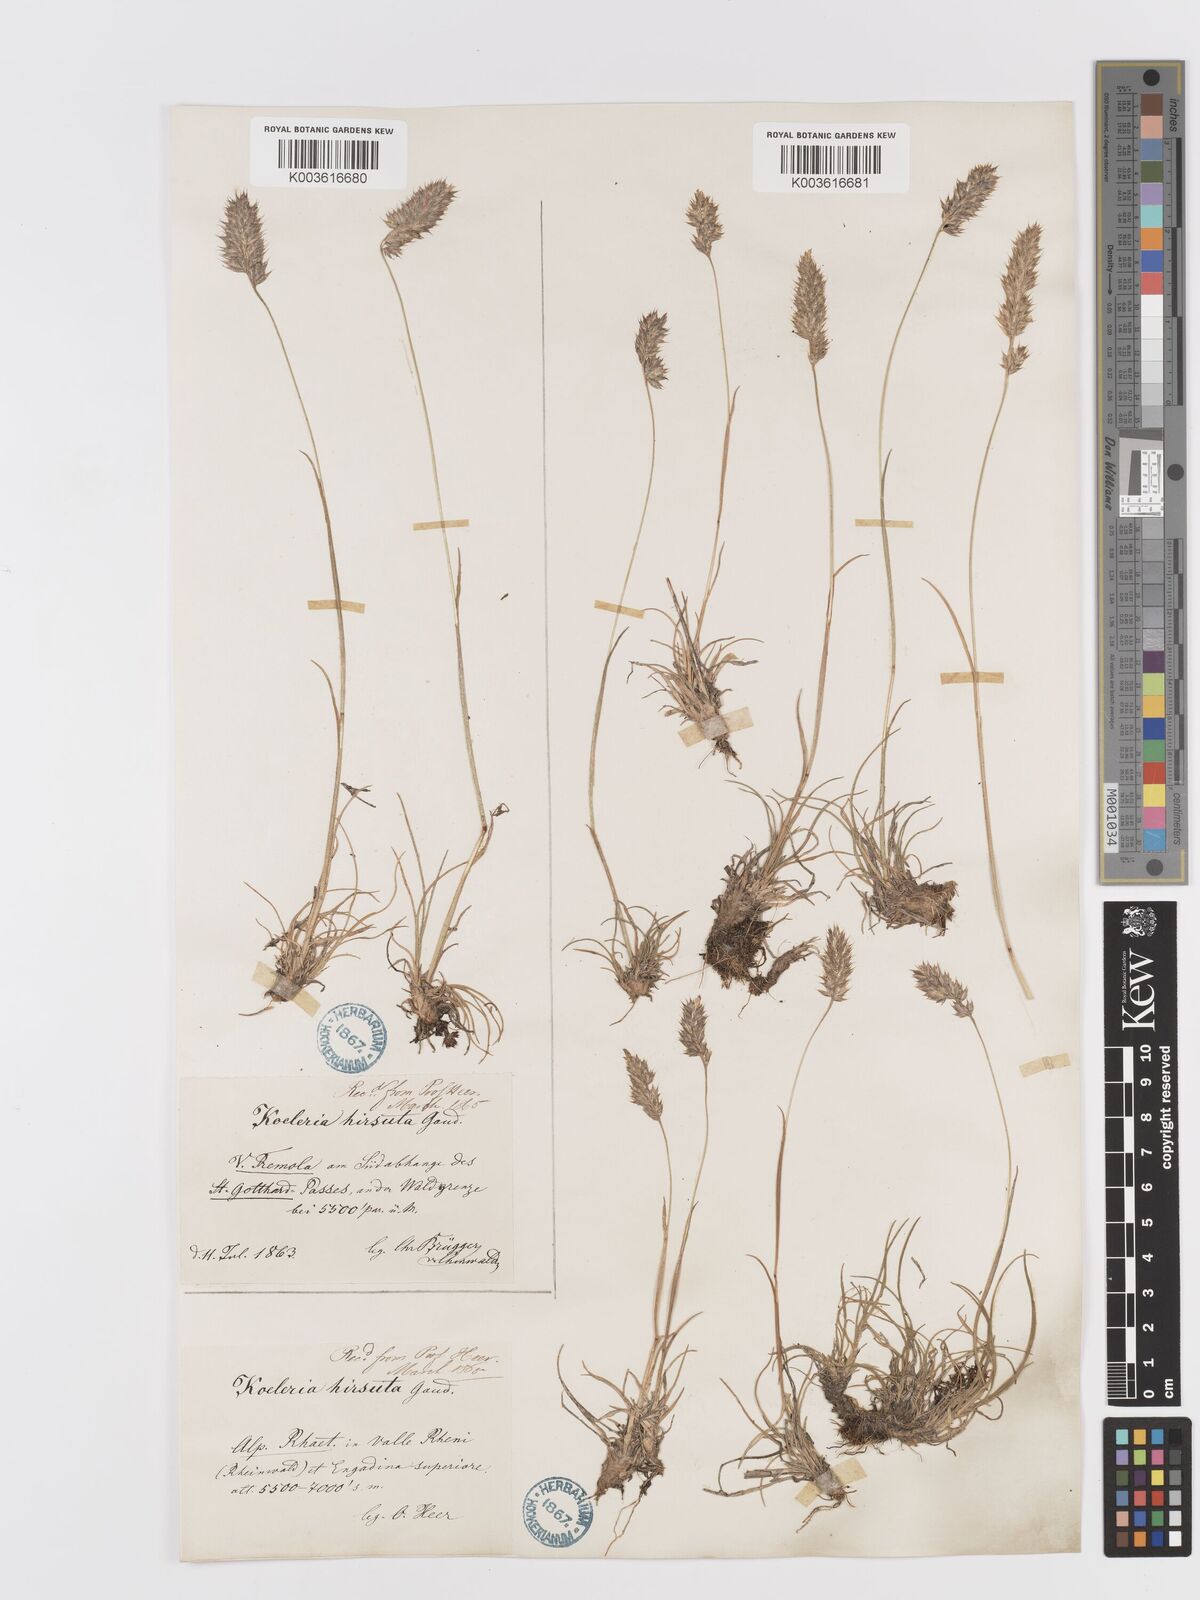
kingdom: Plantae
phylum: Tracheophyta
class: Liliopsida
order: Poales
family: Poaceae
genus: Koeleria
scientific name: Koeleria hirsuta
